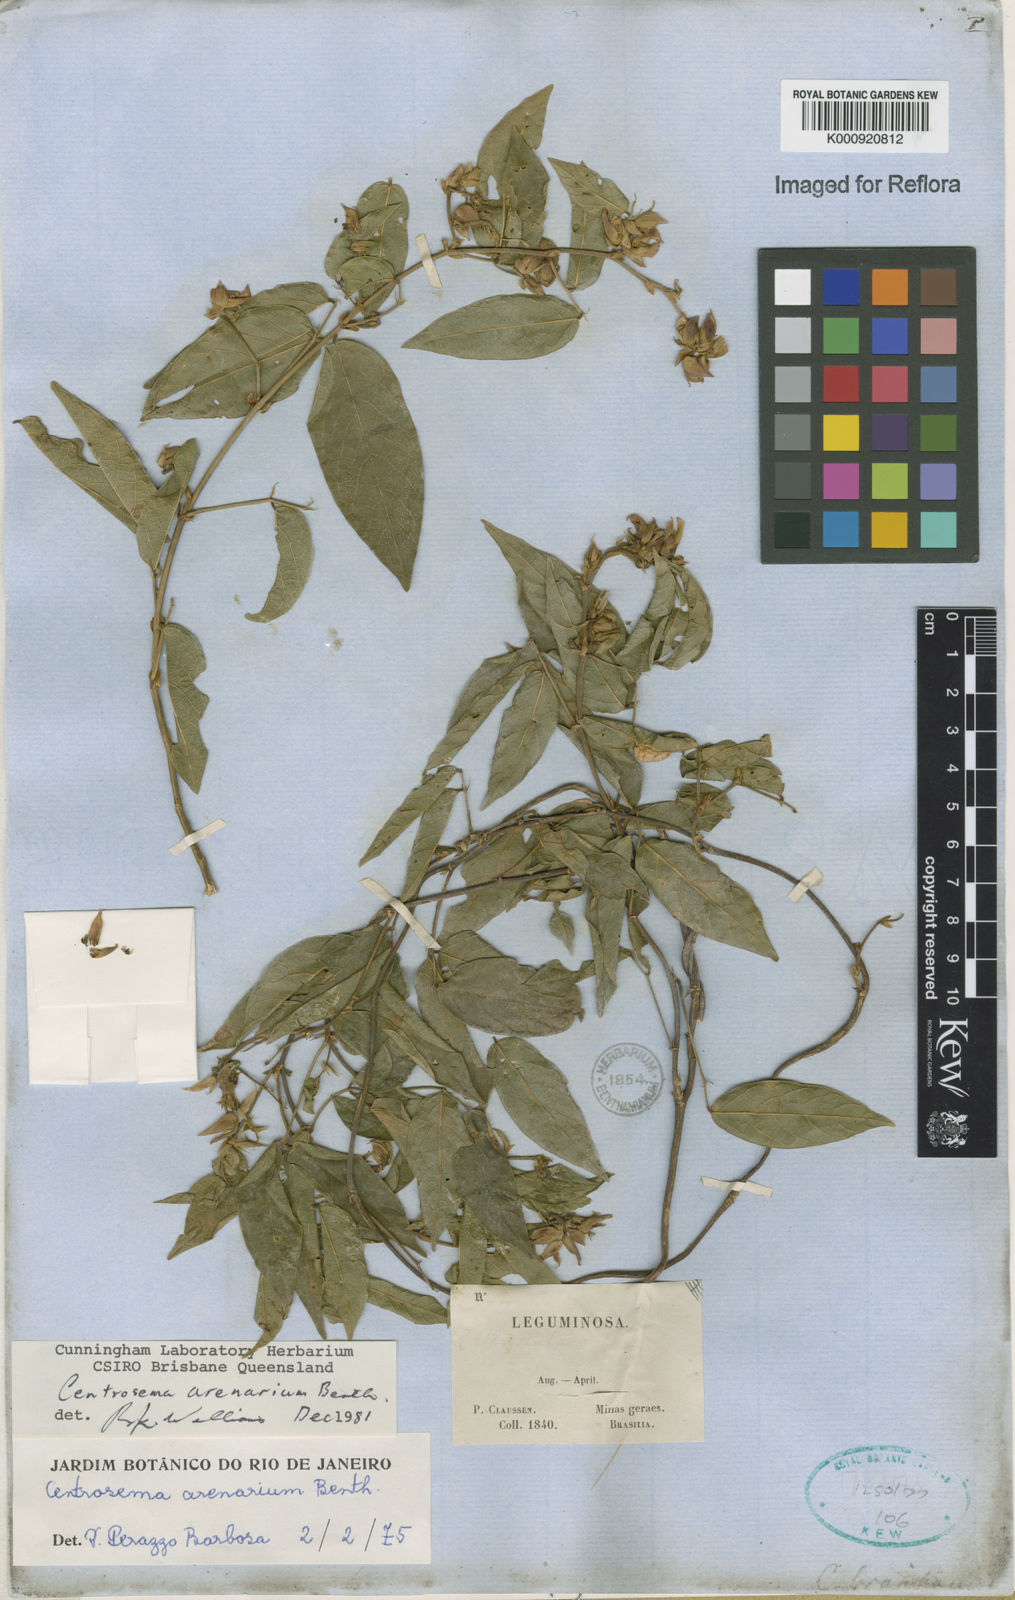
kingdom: Plantae
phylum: Tracheophyta
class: Magnoliopsida
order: Fabales
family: Fabaceae
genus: Centrosema
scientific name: Centrosema arenarium
